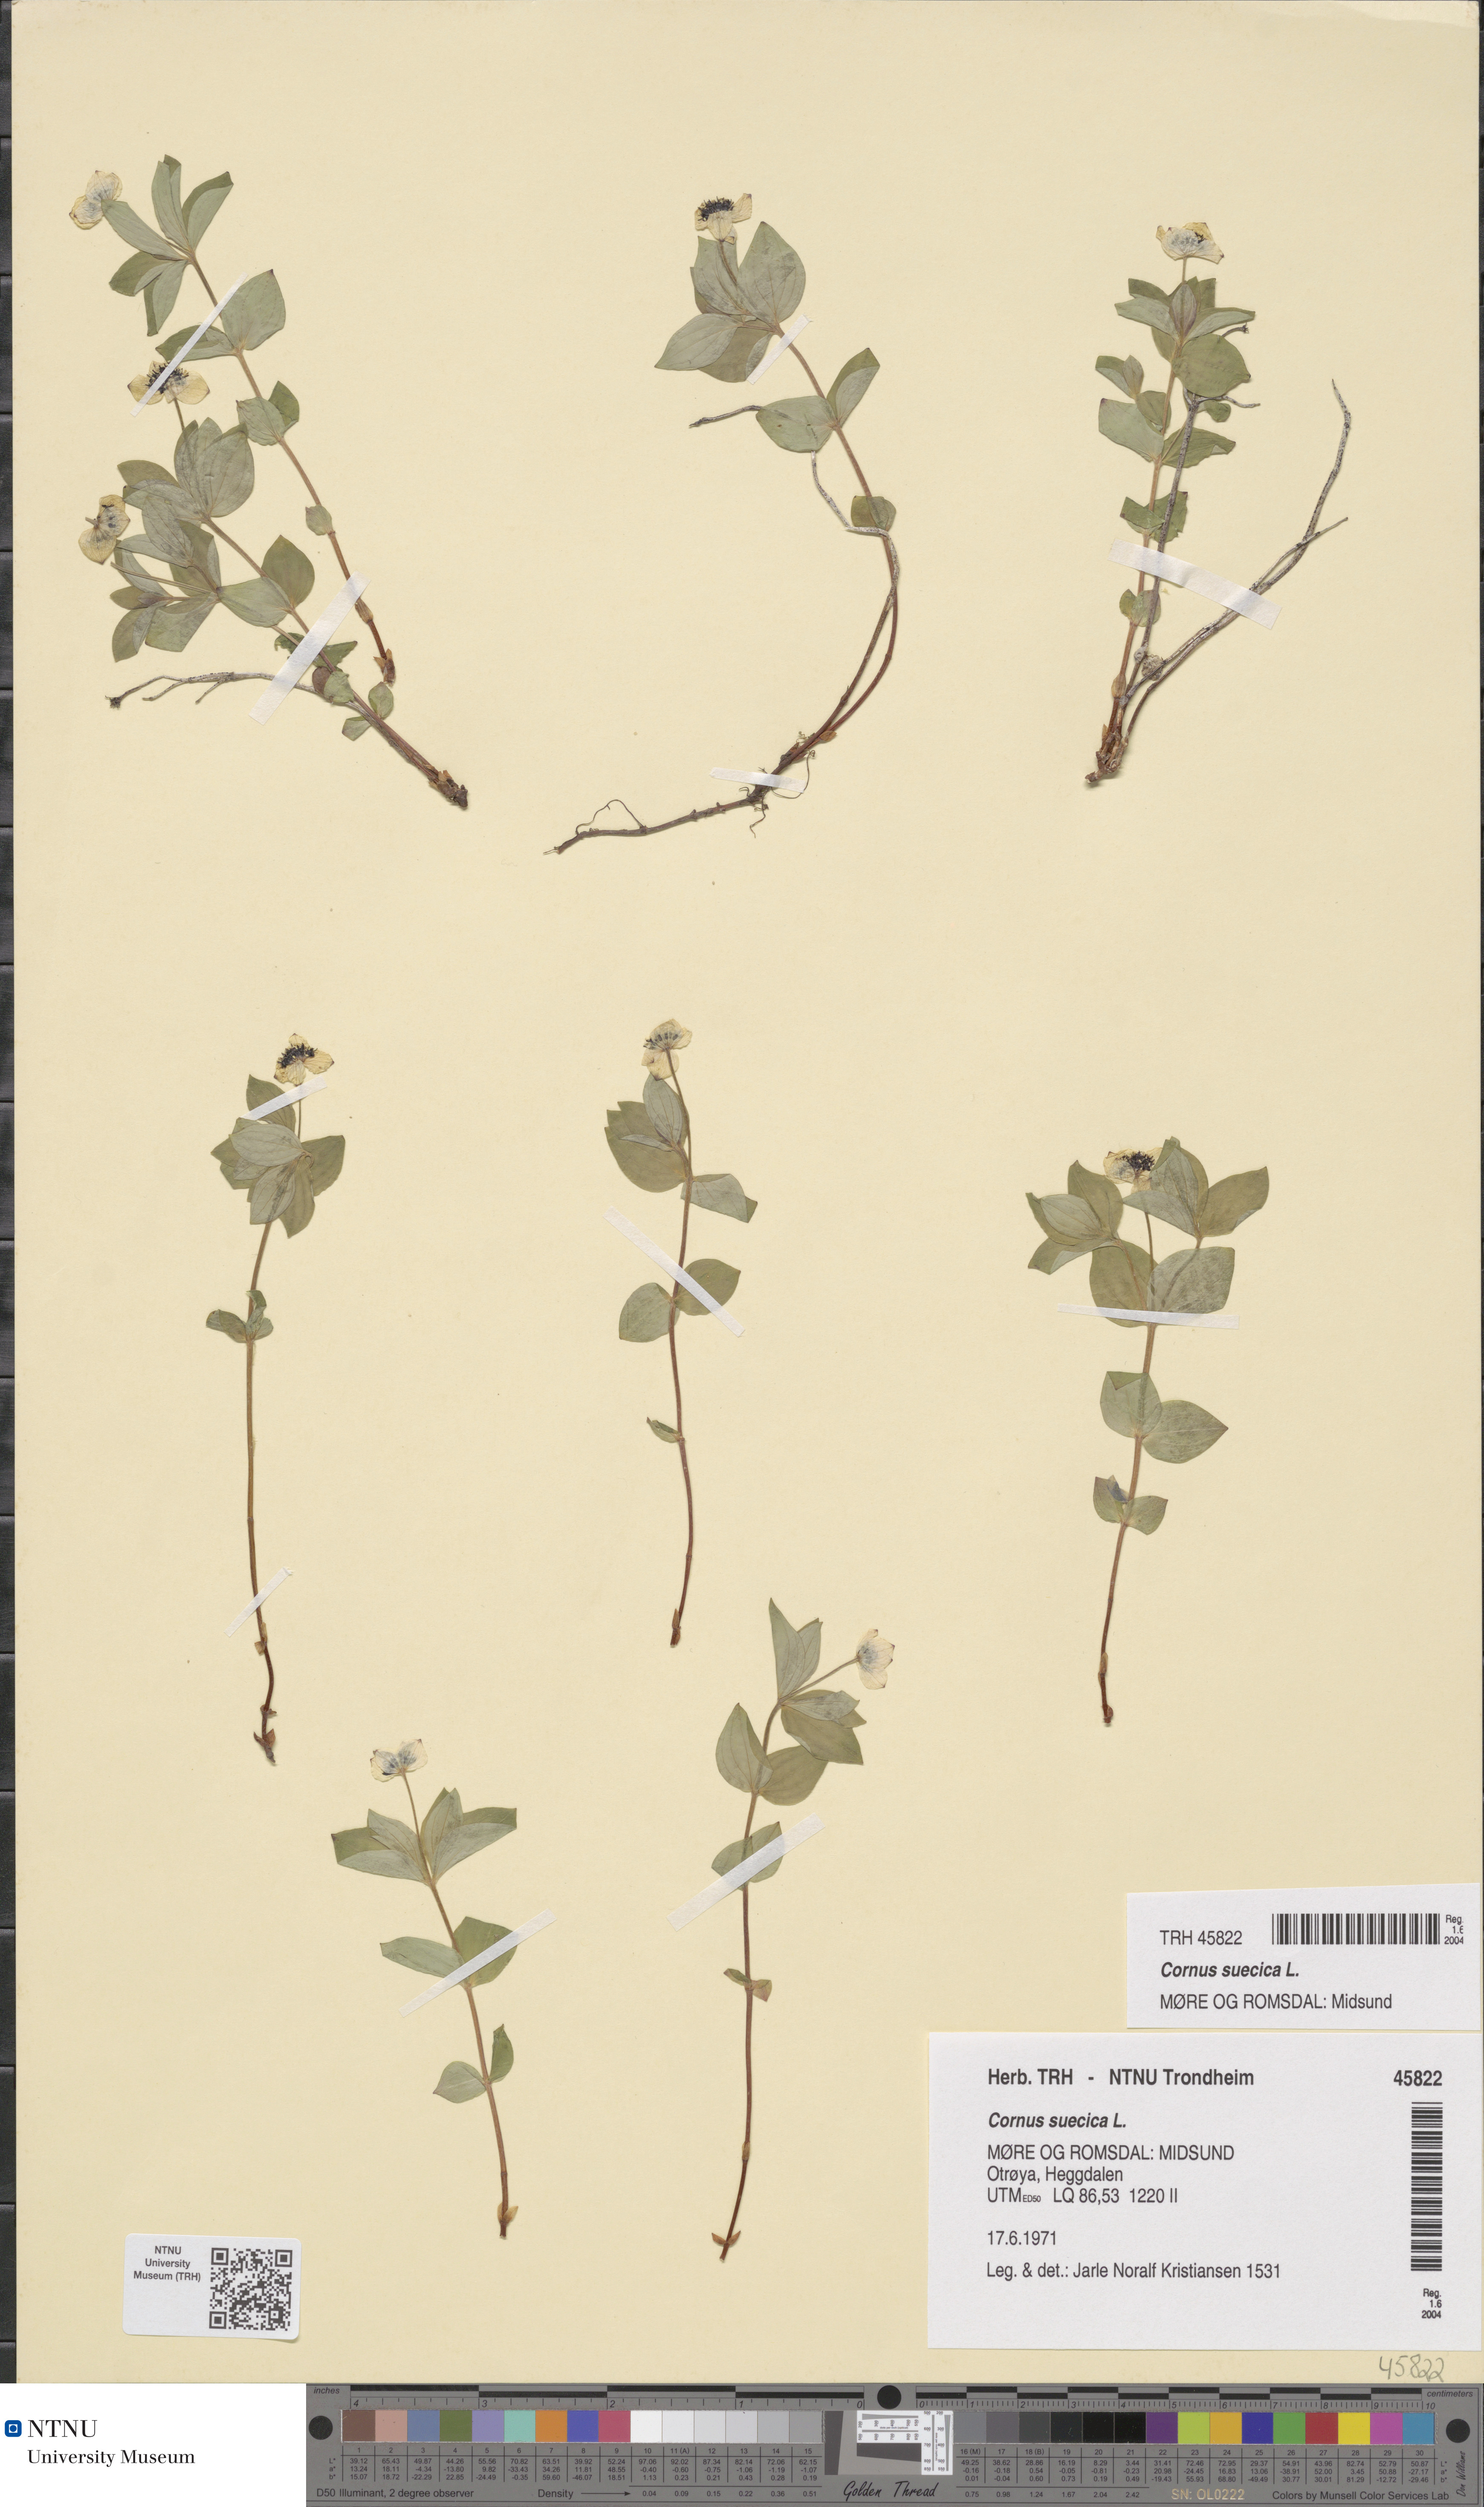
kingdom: Plantae
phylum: Tracheophyta
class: Magnoliopsida
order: Cornales
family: Cornaceae
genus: Cornus
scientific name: Cornus suecica
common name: Dwarf cornel
